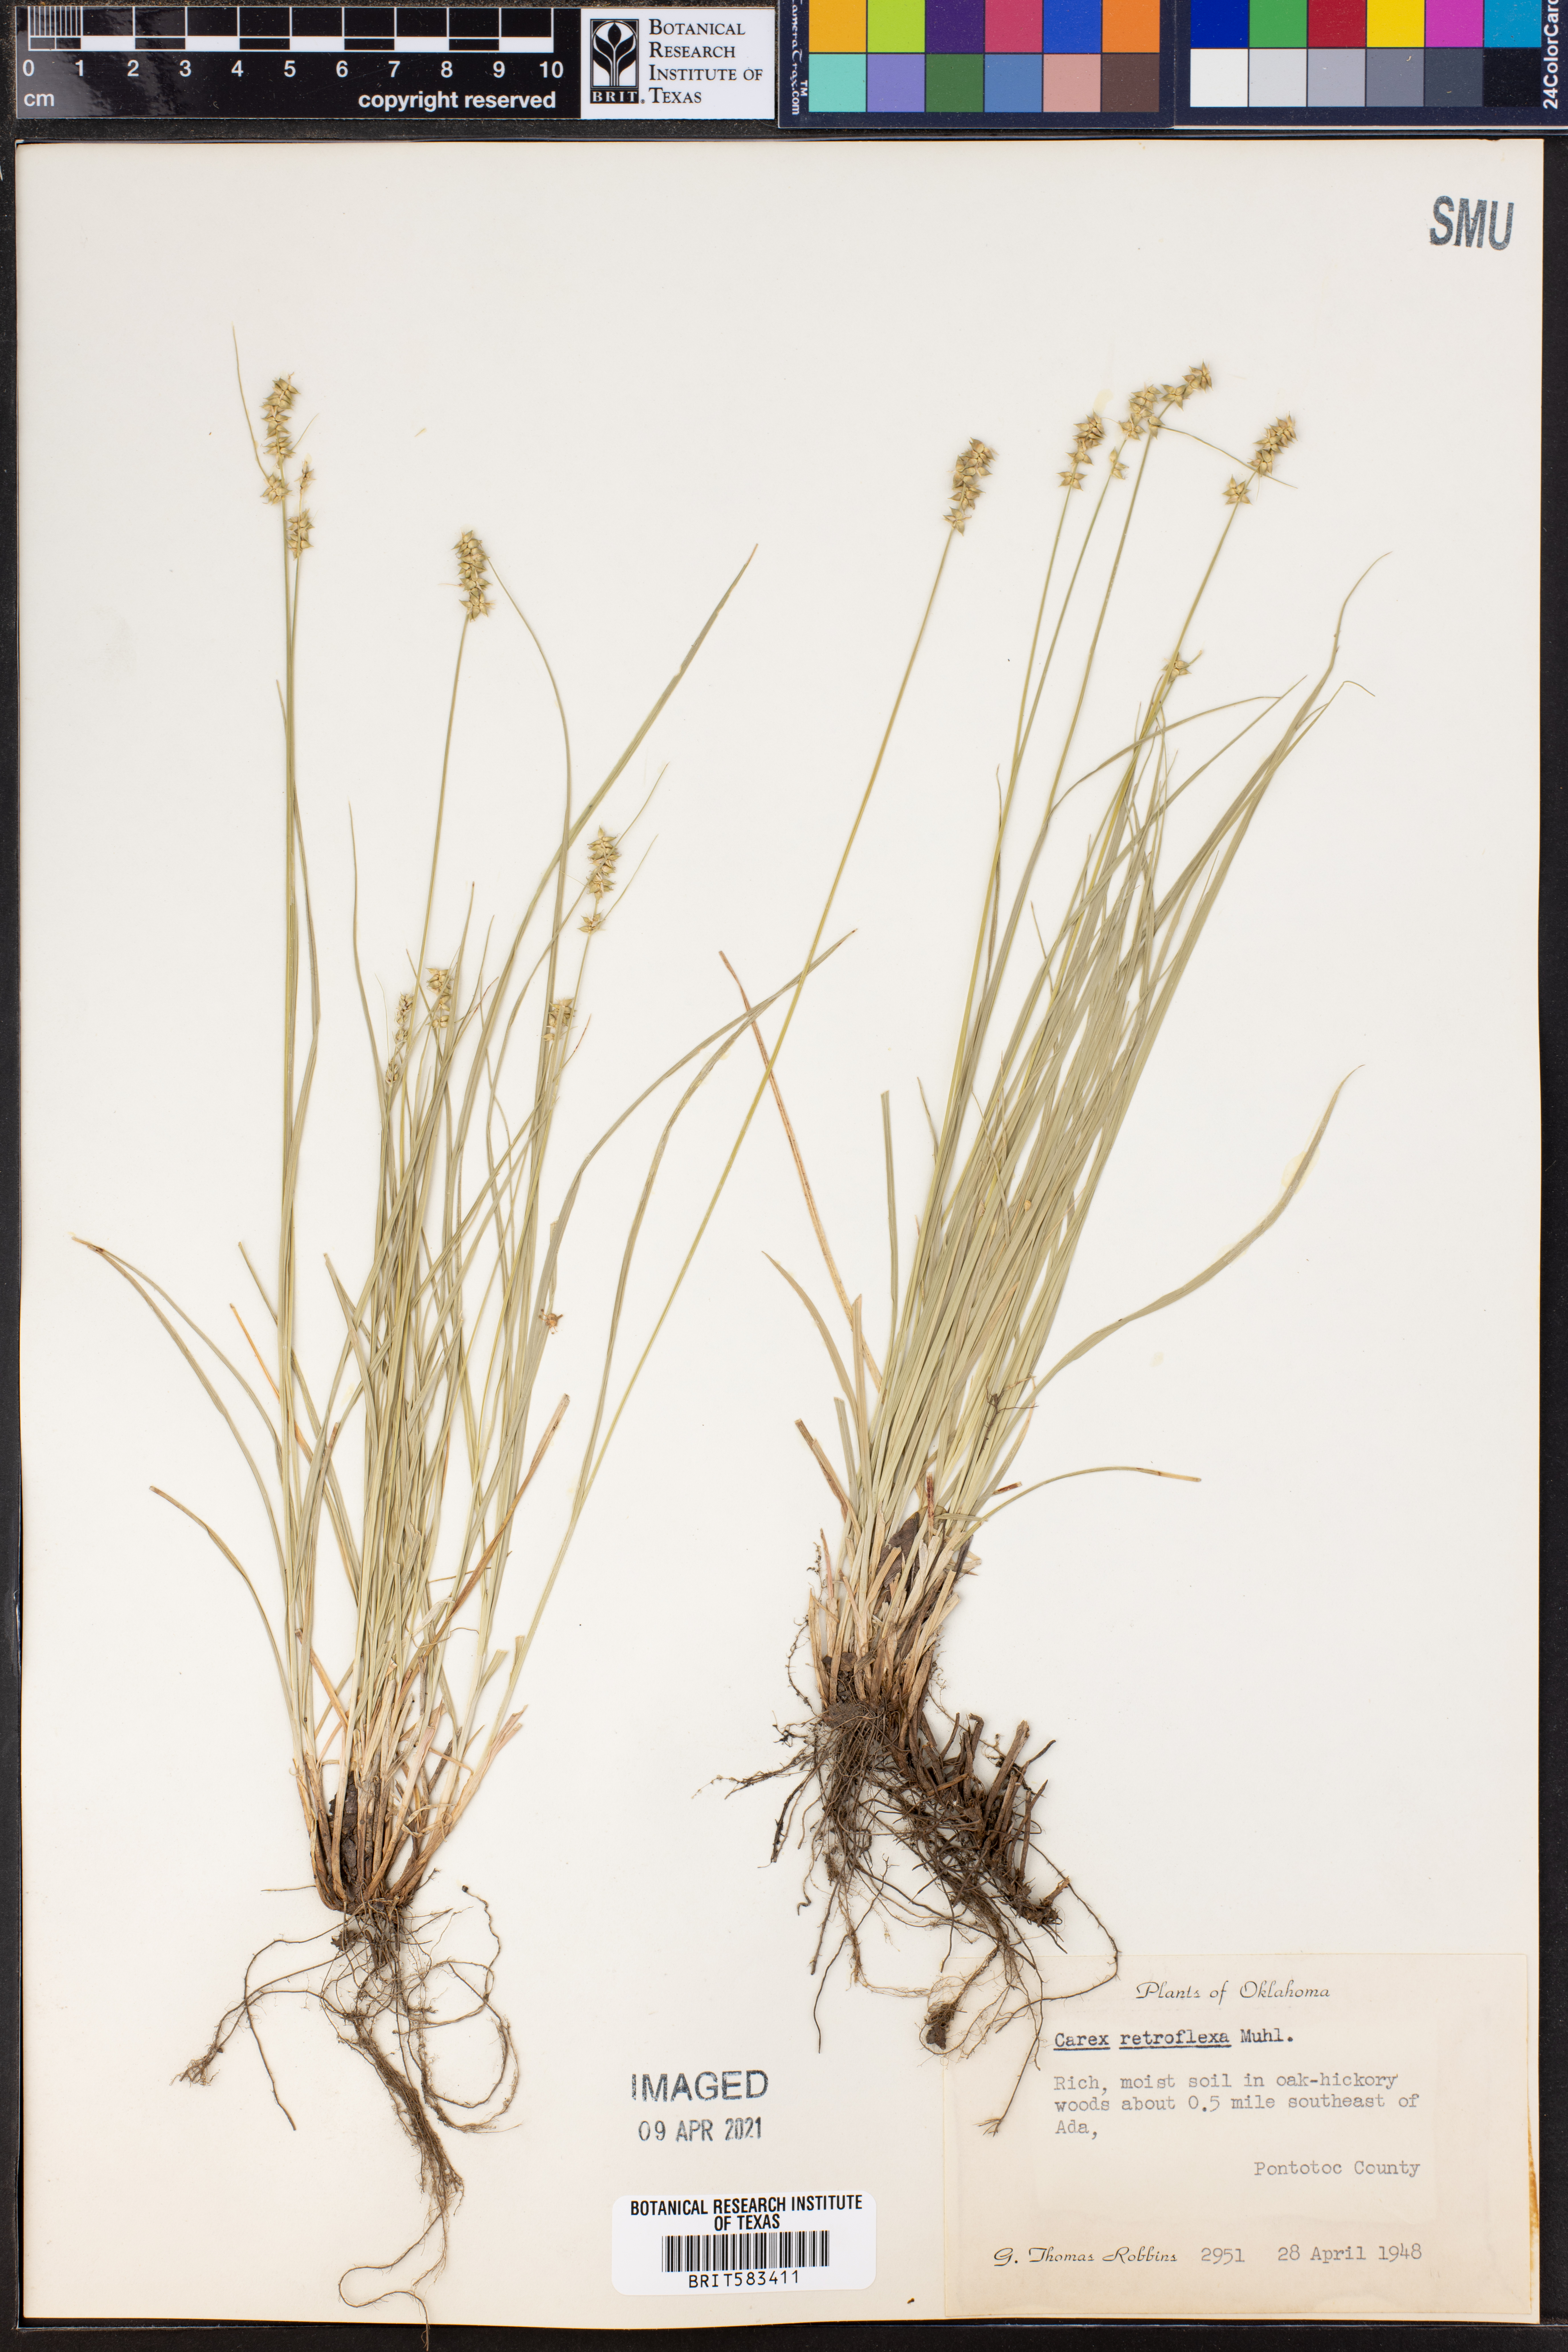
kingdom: Plantae
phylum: Tracheophyta
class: Liliopsida
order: Poales
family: Cyperaceae
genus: Carex
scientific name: Carex retroflexa
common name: Reflexed sedge
